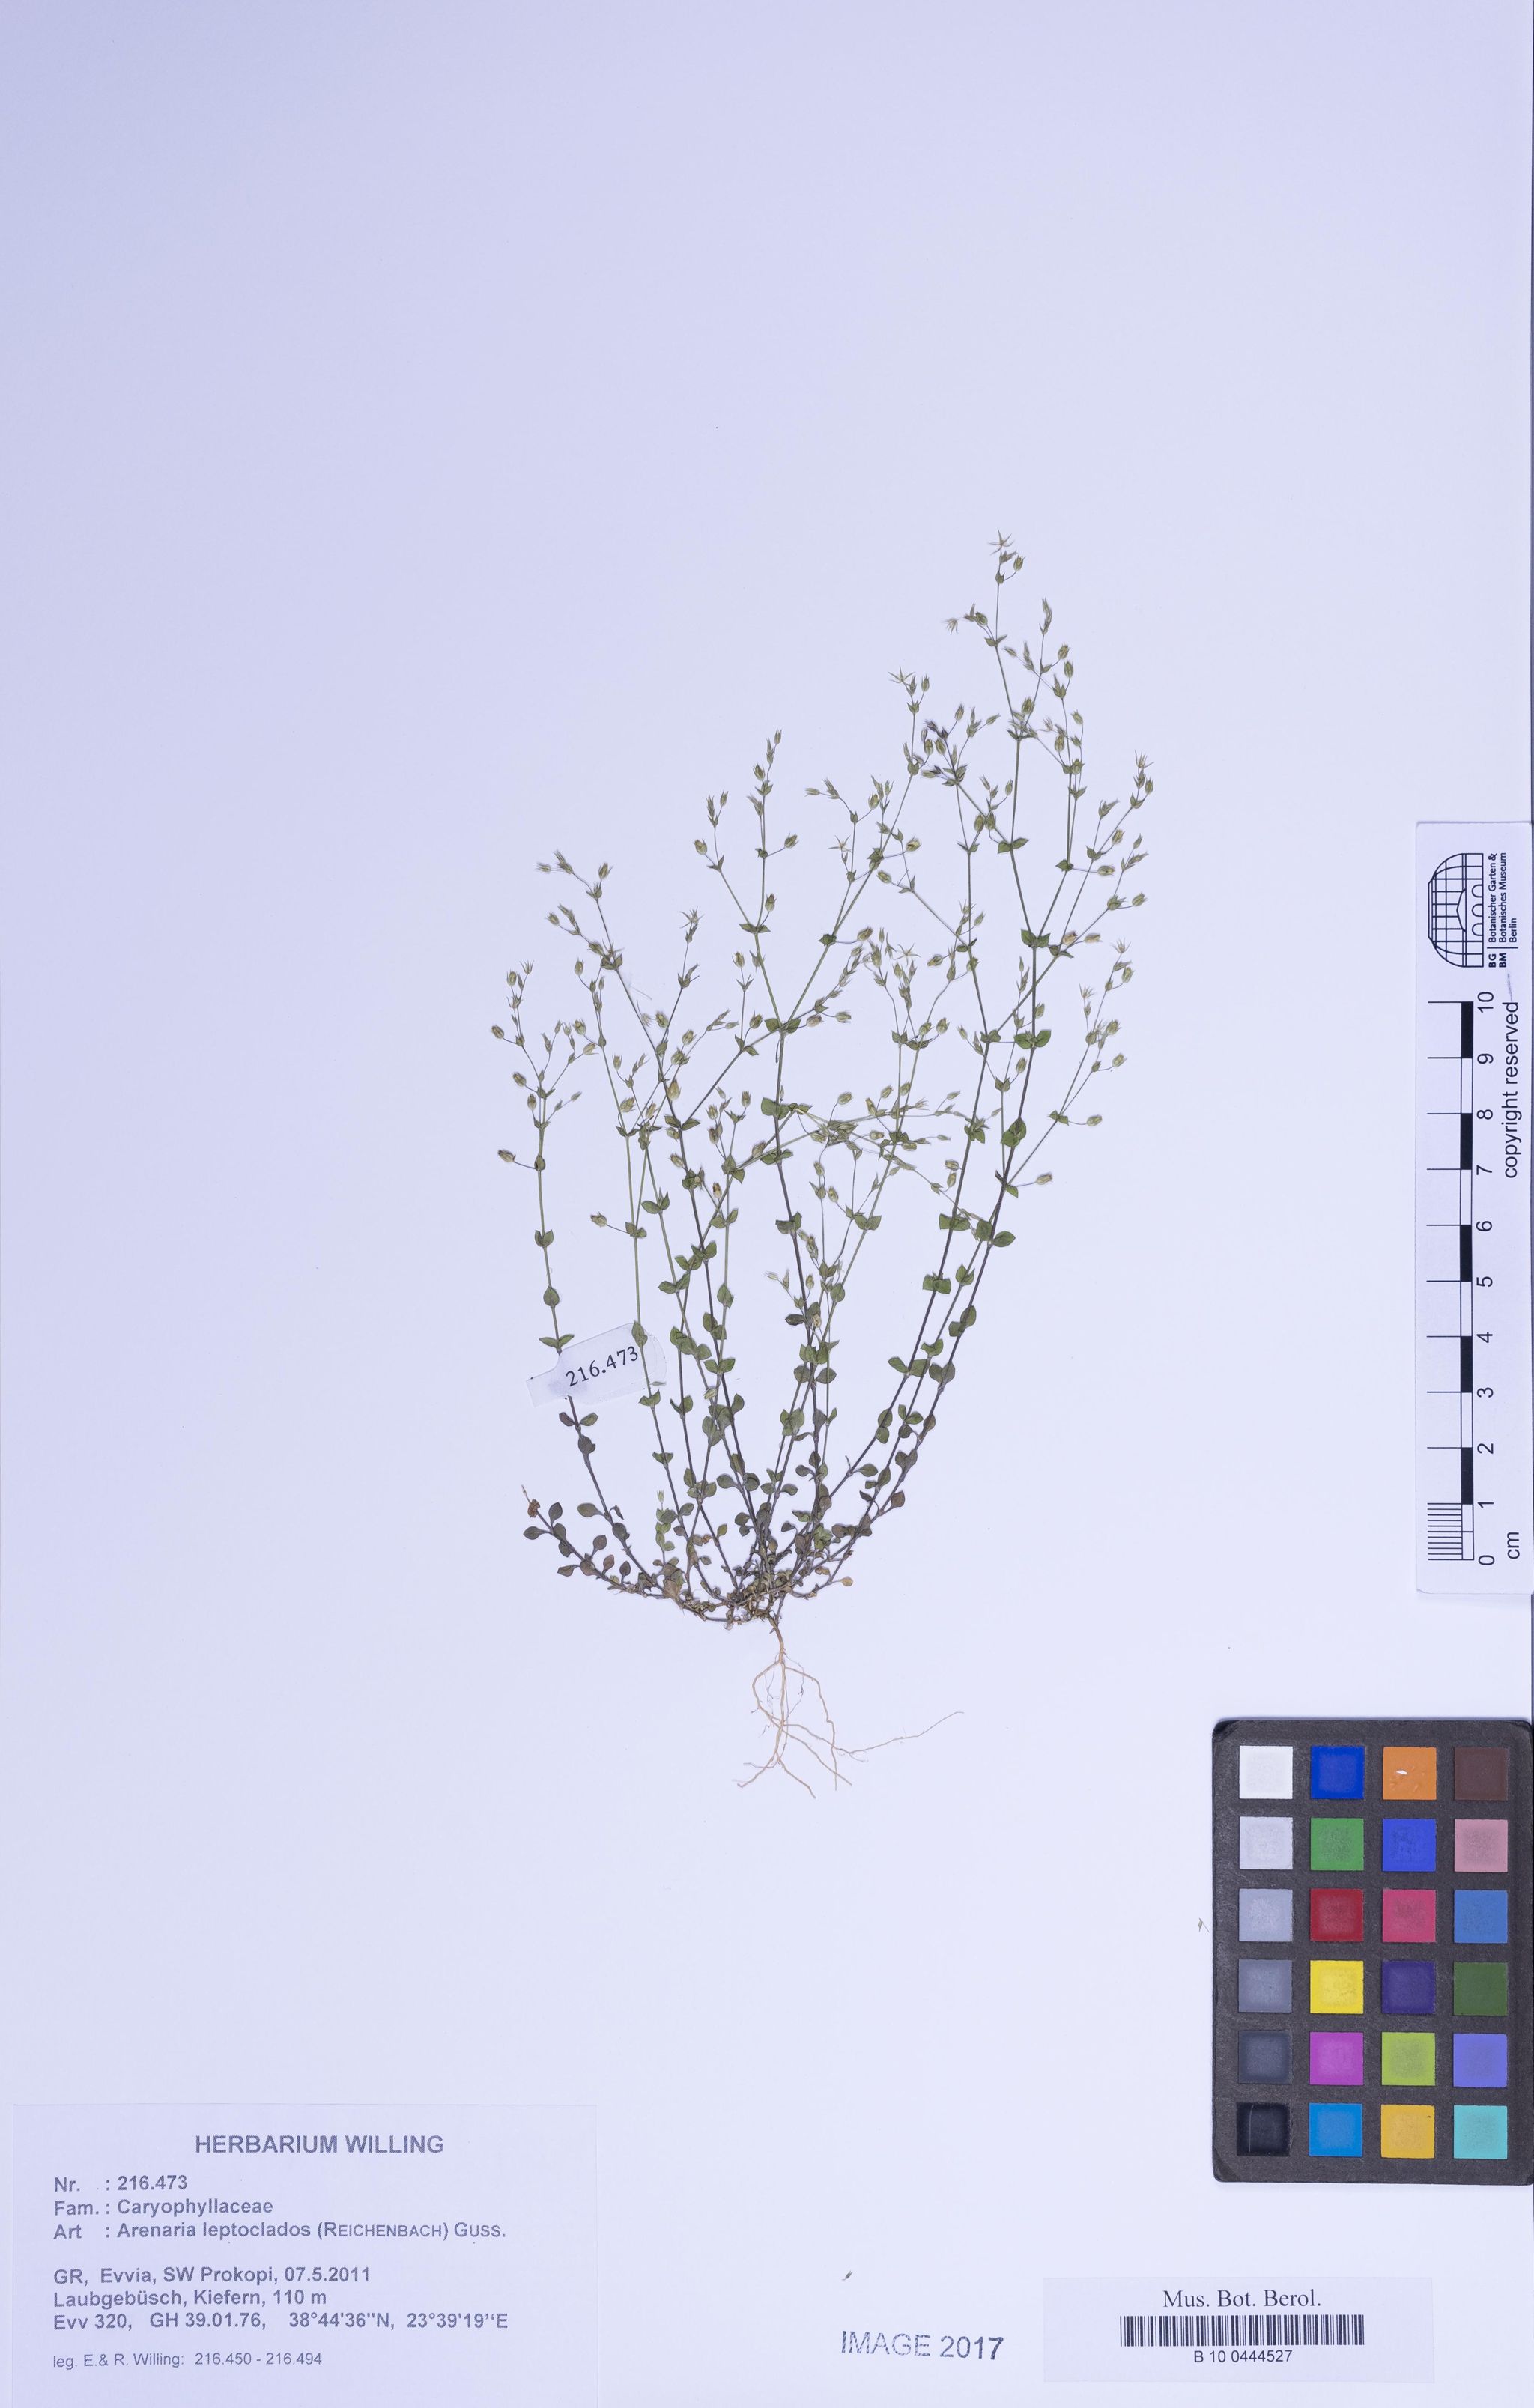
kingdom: Plantae
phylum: Tracheophyta
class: Magnoliopsida
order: Caryophyllales
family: Caryophyllaceae
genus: Arenaria
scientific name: Arenaria leptoclados
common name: Thyme-leaved sandwort
